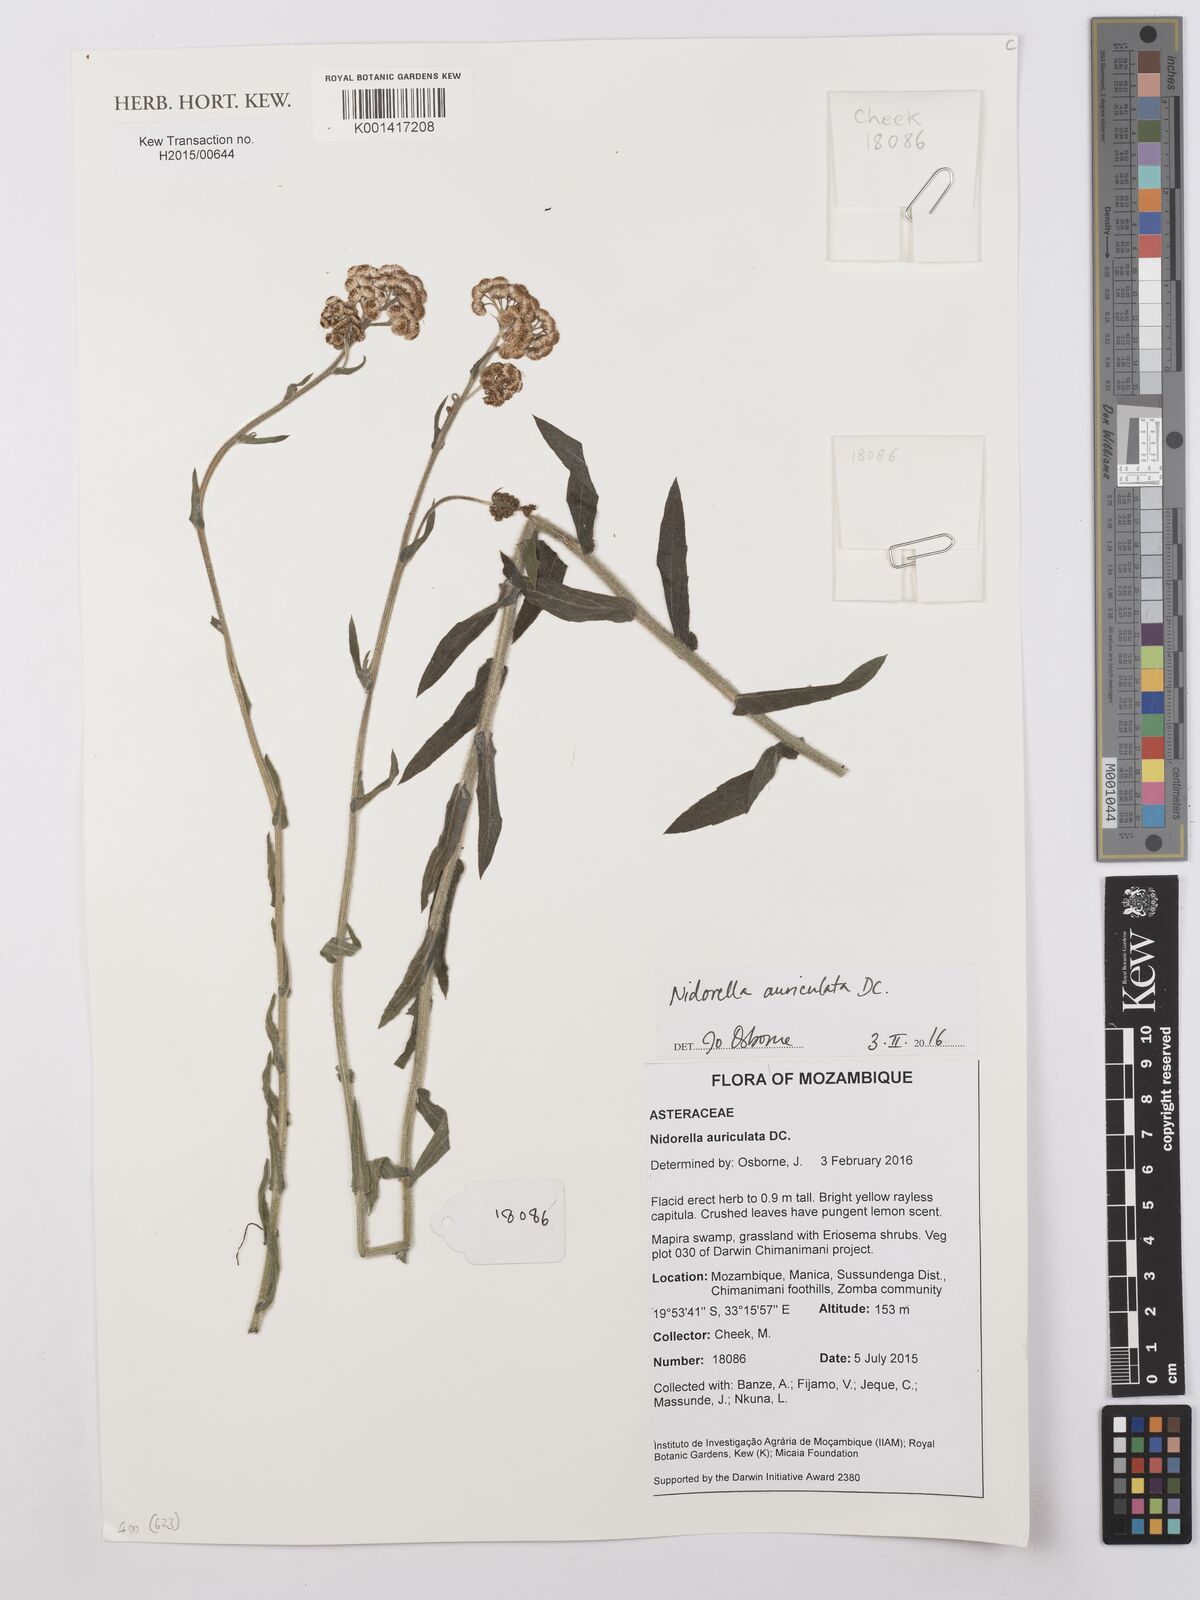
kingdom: Plantae
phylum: Tracheophyta
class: Magnoliopsida
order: Asterales
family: Asteraceae
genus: Nidorella
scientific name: Nidorella auriculata
